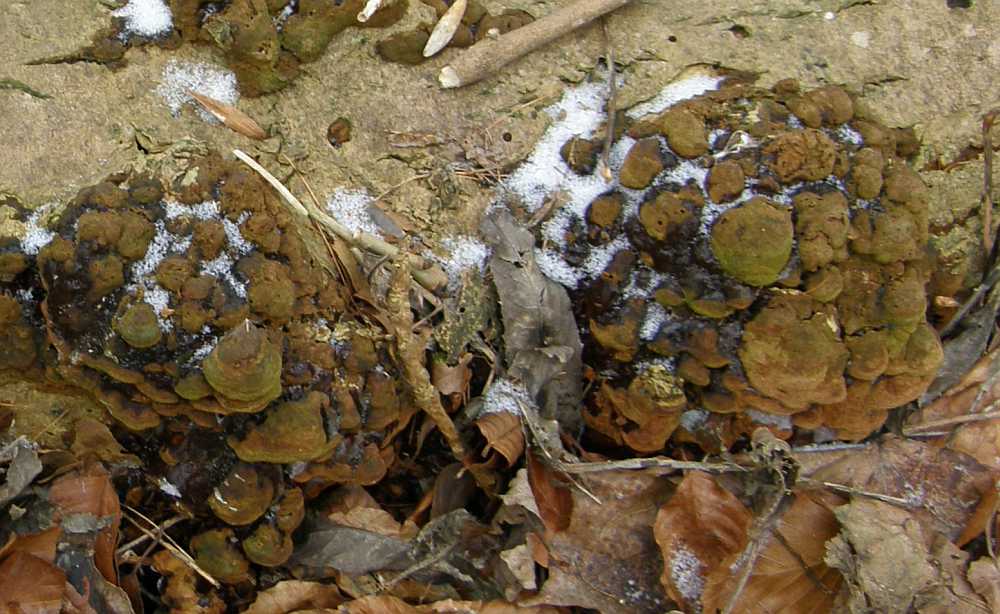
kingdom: Fungi
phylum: Basidiomycota
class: Agaricomycetes
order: Hymenochaetales
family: Hymenochaetaceae
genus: Fuscoporia
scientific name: Fuscoporia ferrea
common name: skorpe-ildporesvamp
